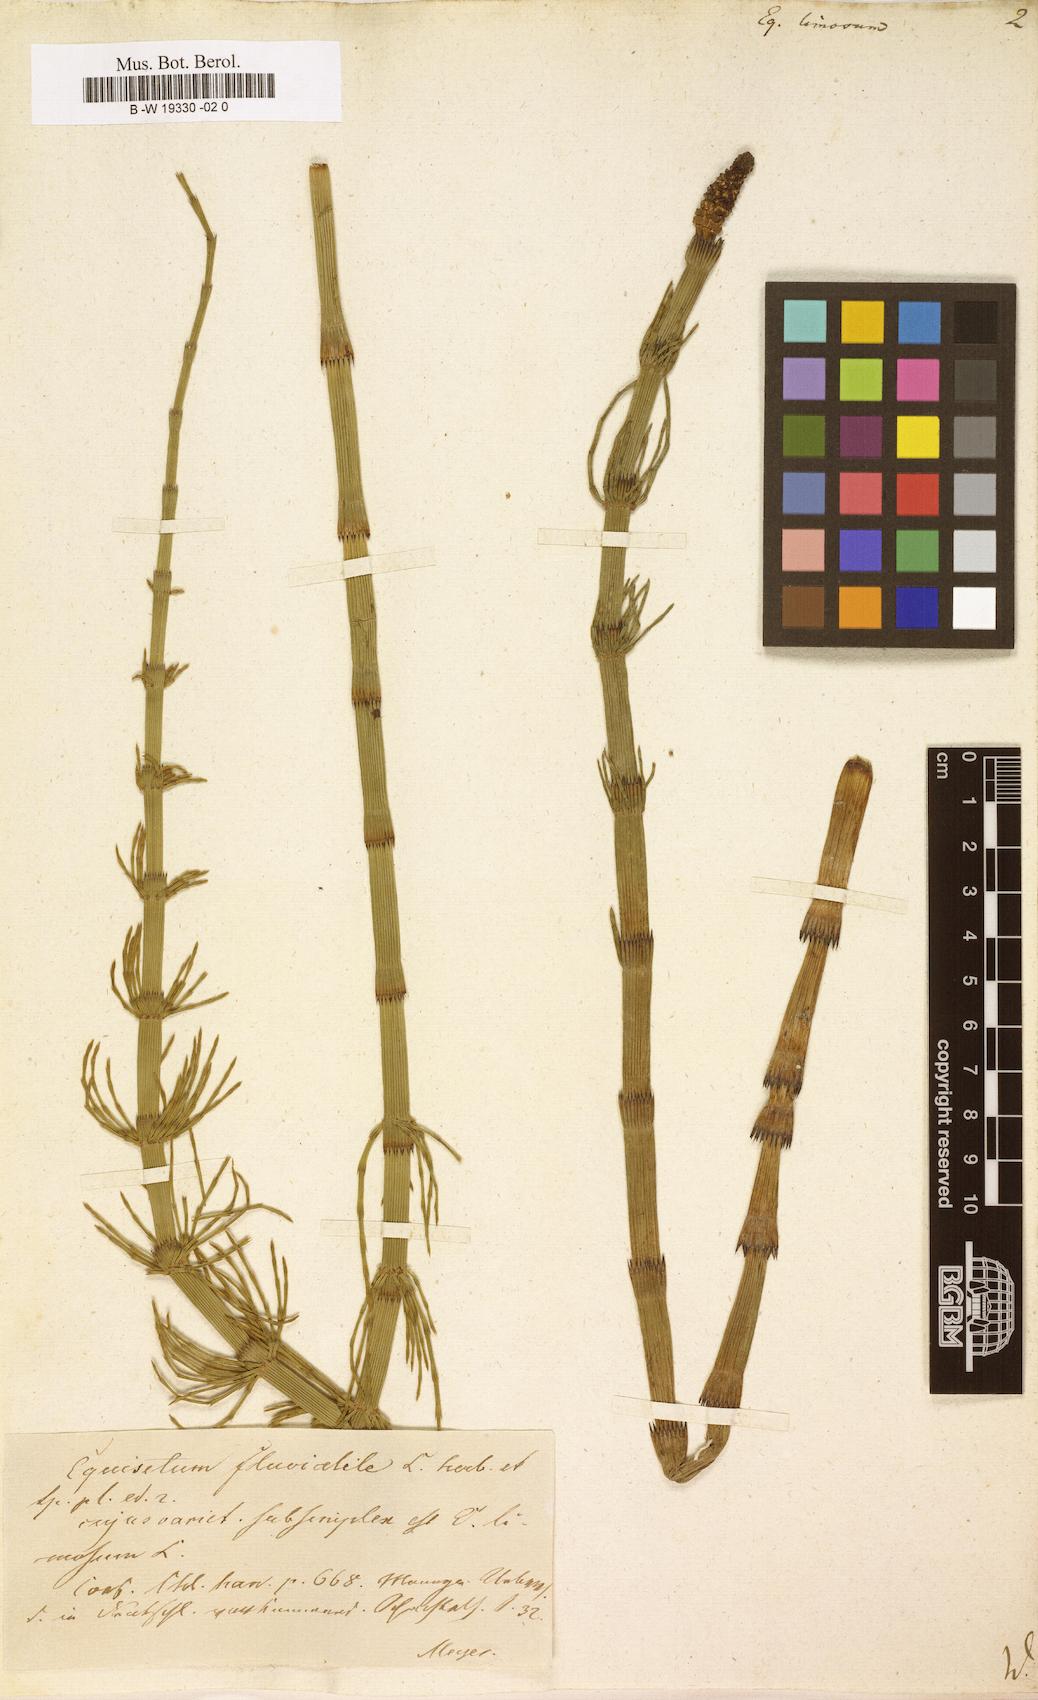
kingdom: Plantae
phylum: Tracheophyta
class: Polypodiopsida
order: Equisetales
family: Equisetaceae
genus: Equisetum
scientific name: Equisetum fluviatile
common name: Water horsetail
